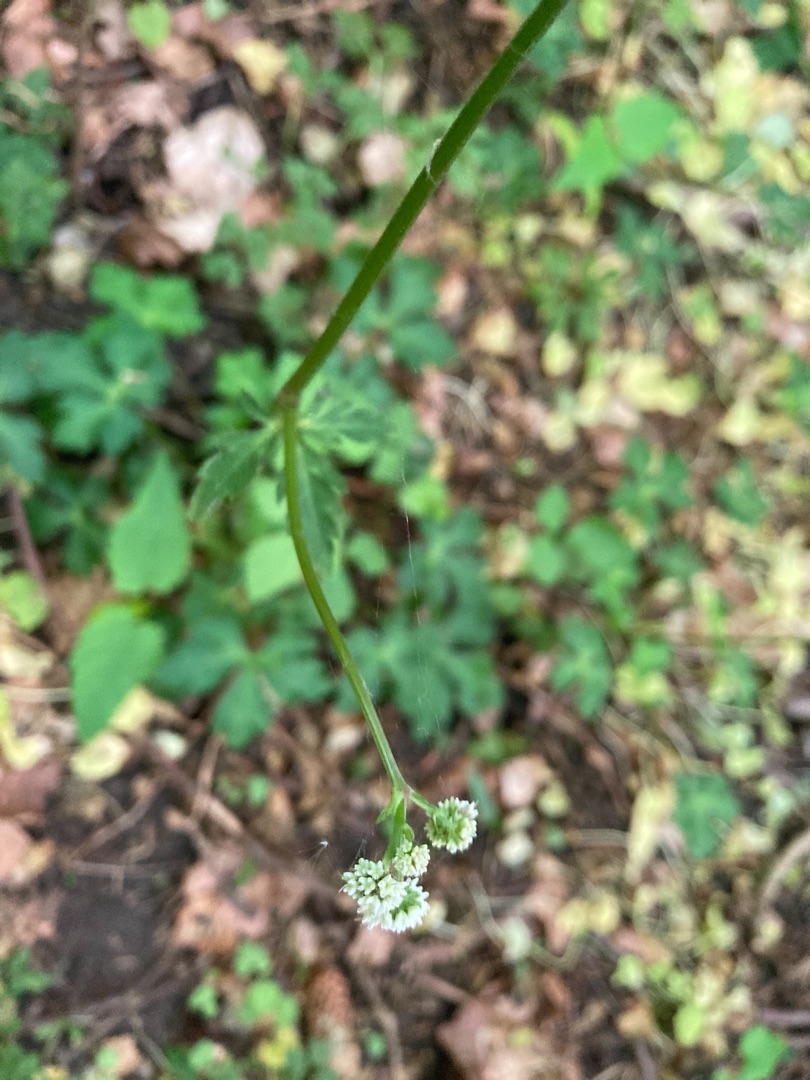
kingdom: Plantae
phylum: Tracheophyta
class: Magnoliopsida
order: Apiales
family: Apiaceae
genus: Sanicula
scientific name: Sanicula europaea
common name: Sanikel
